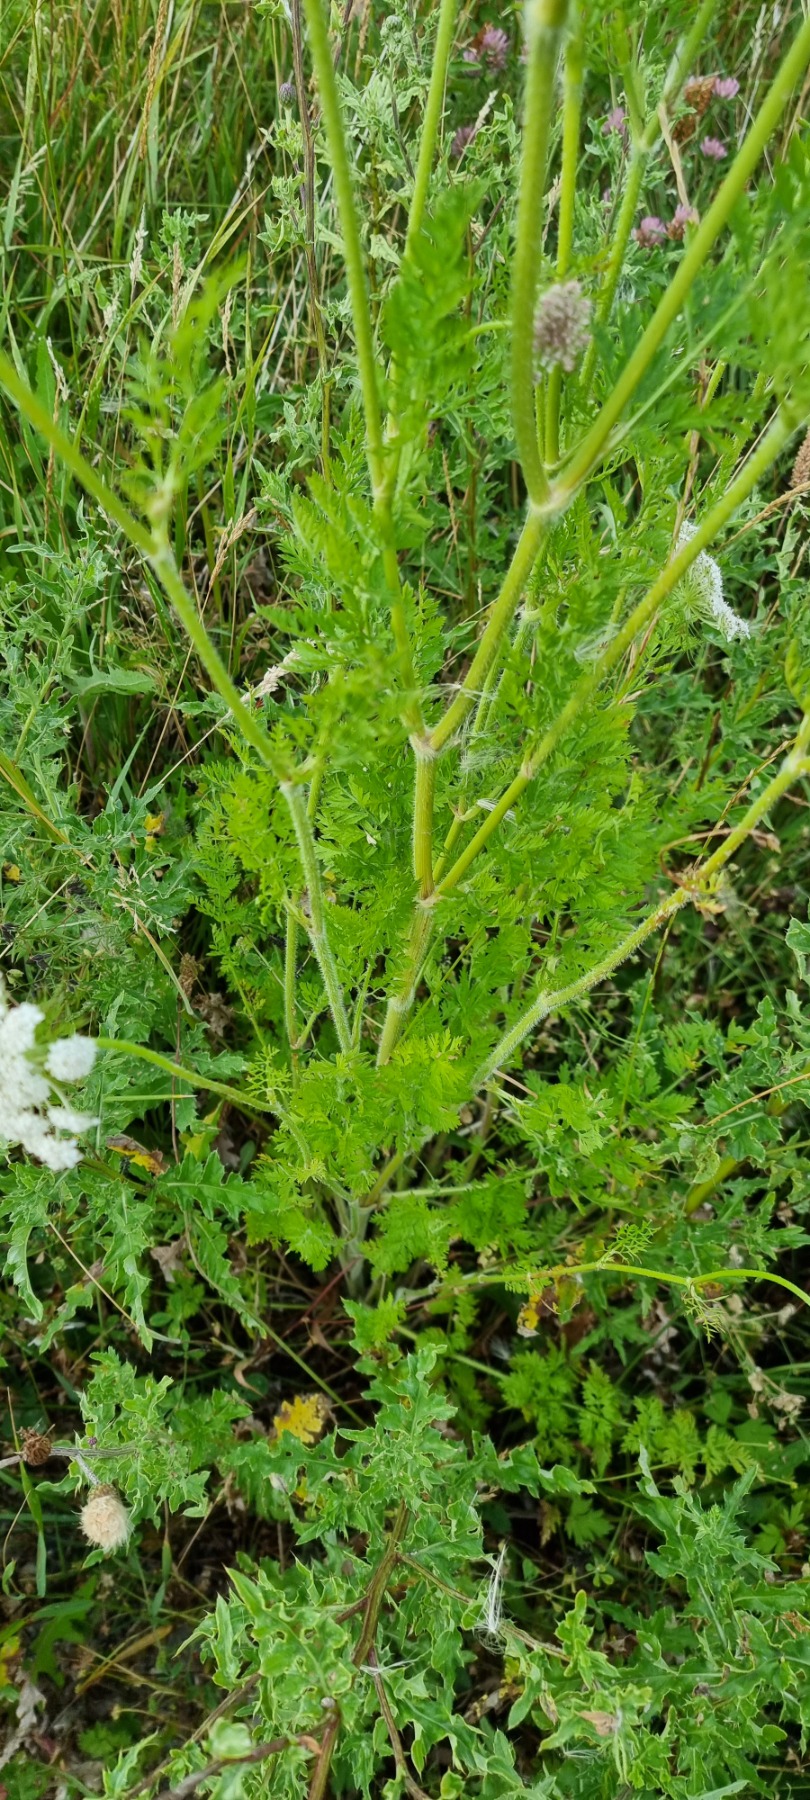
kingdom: Plantae
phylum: Tracheophyta
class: Magnoliopsida
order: Apiales
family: Apiaceae
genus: Daucus
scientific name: Daucus carota
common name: Vild gulerod
